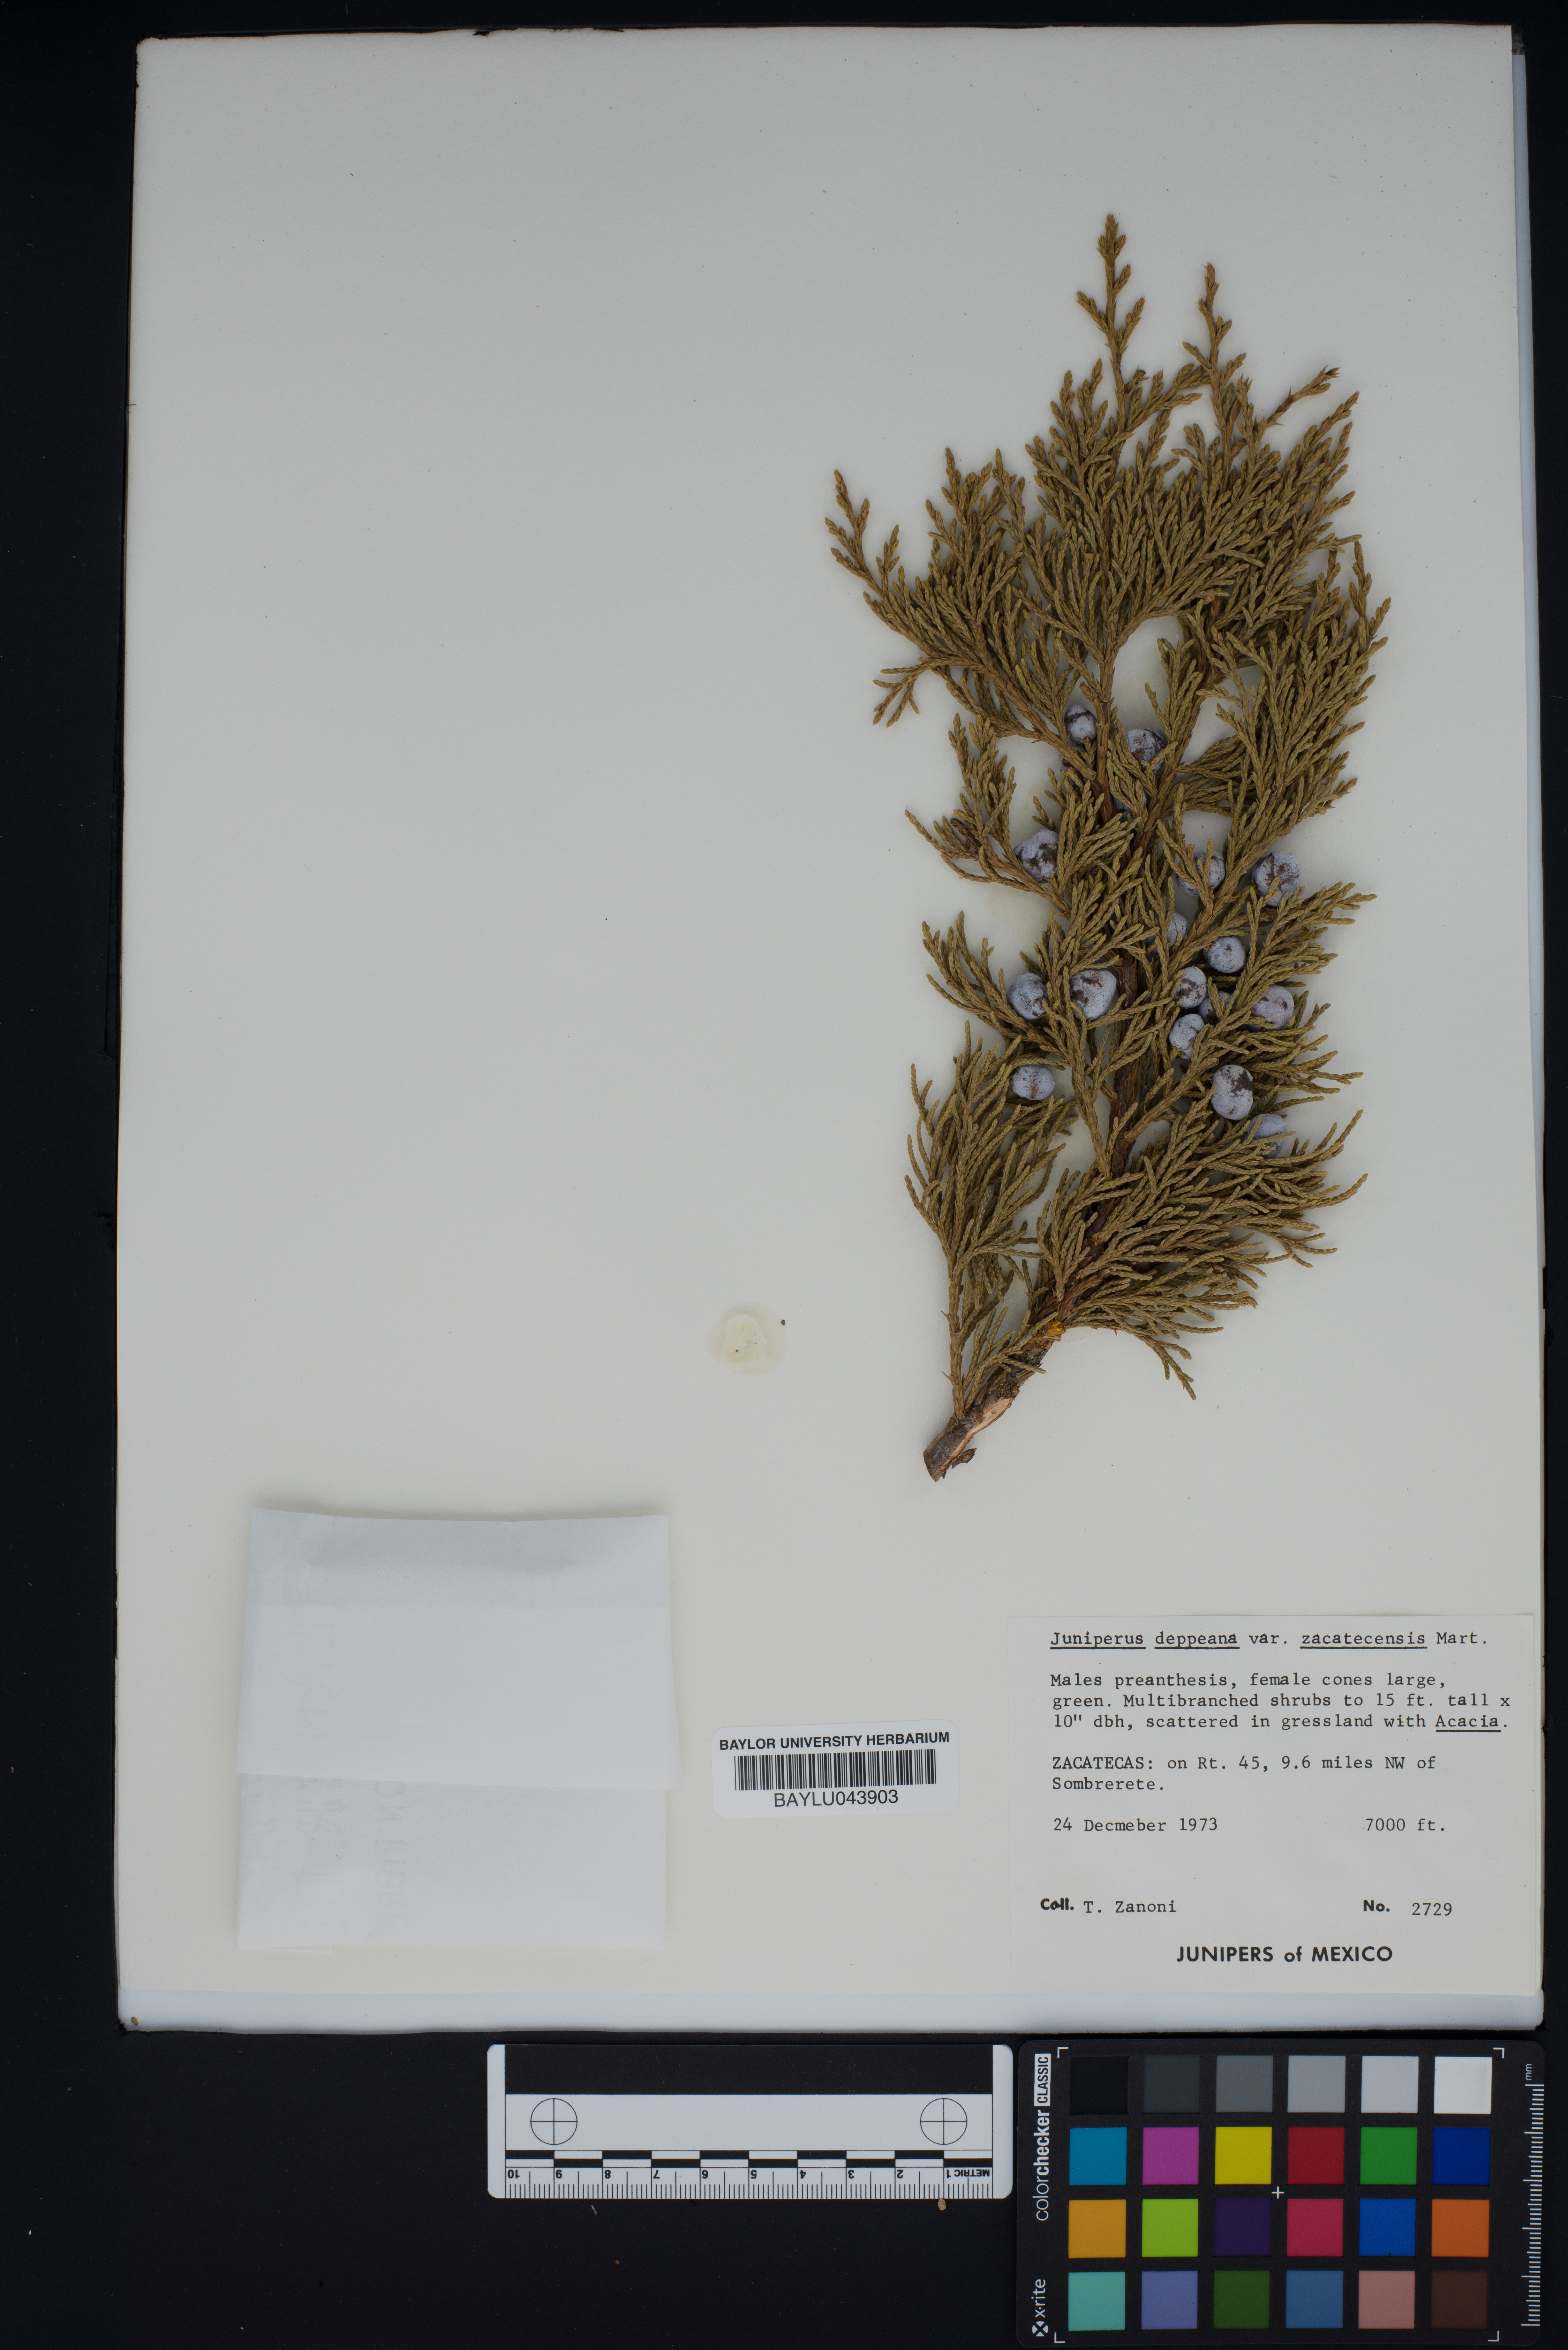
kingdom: Plantae
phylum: Tracheophyta
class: Pinopsida
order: Pinales
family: Cupressaceae
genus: Juniperus
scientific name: Juniperus deppeana
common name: Alligator juniper
